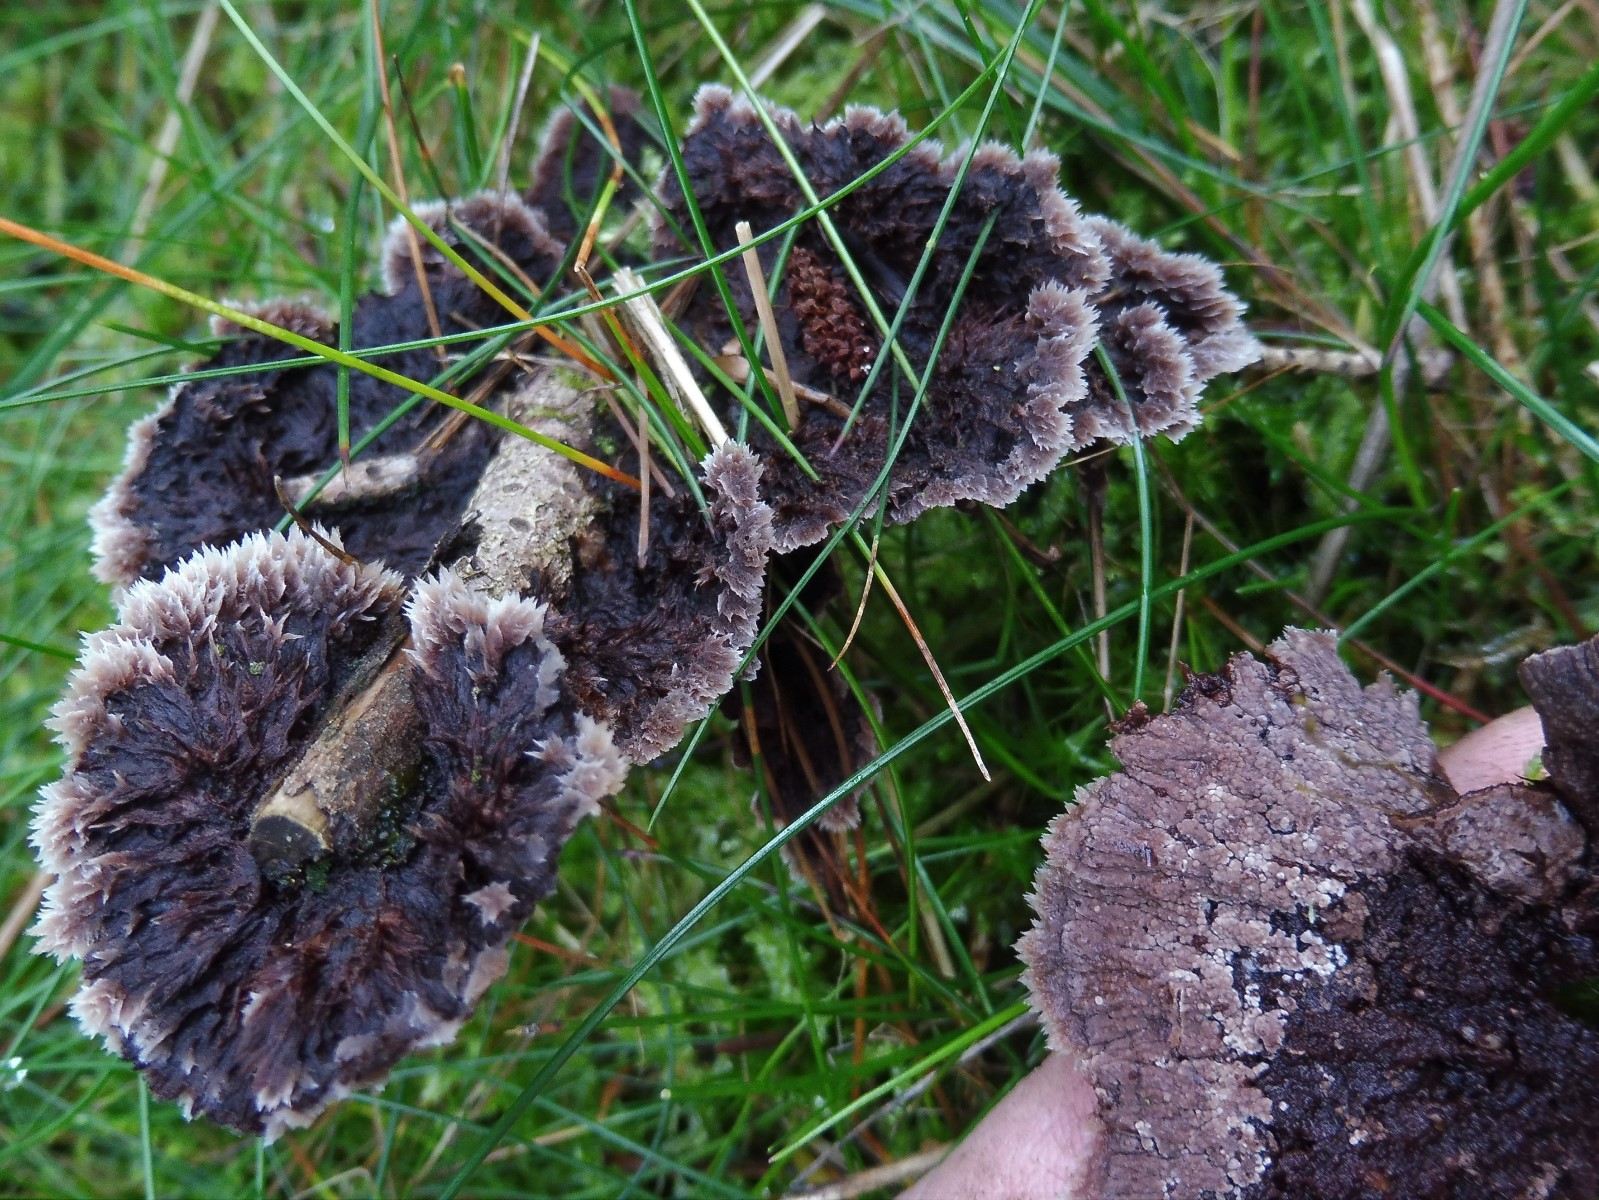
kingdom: Fungi
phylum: Basidiomycota
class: Agaricomycetes
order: Thelephorales
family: Thelephoraceae
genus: Thelephora
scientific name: Thelephora terrestris
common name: fliget frynsesvamp
